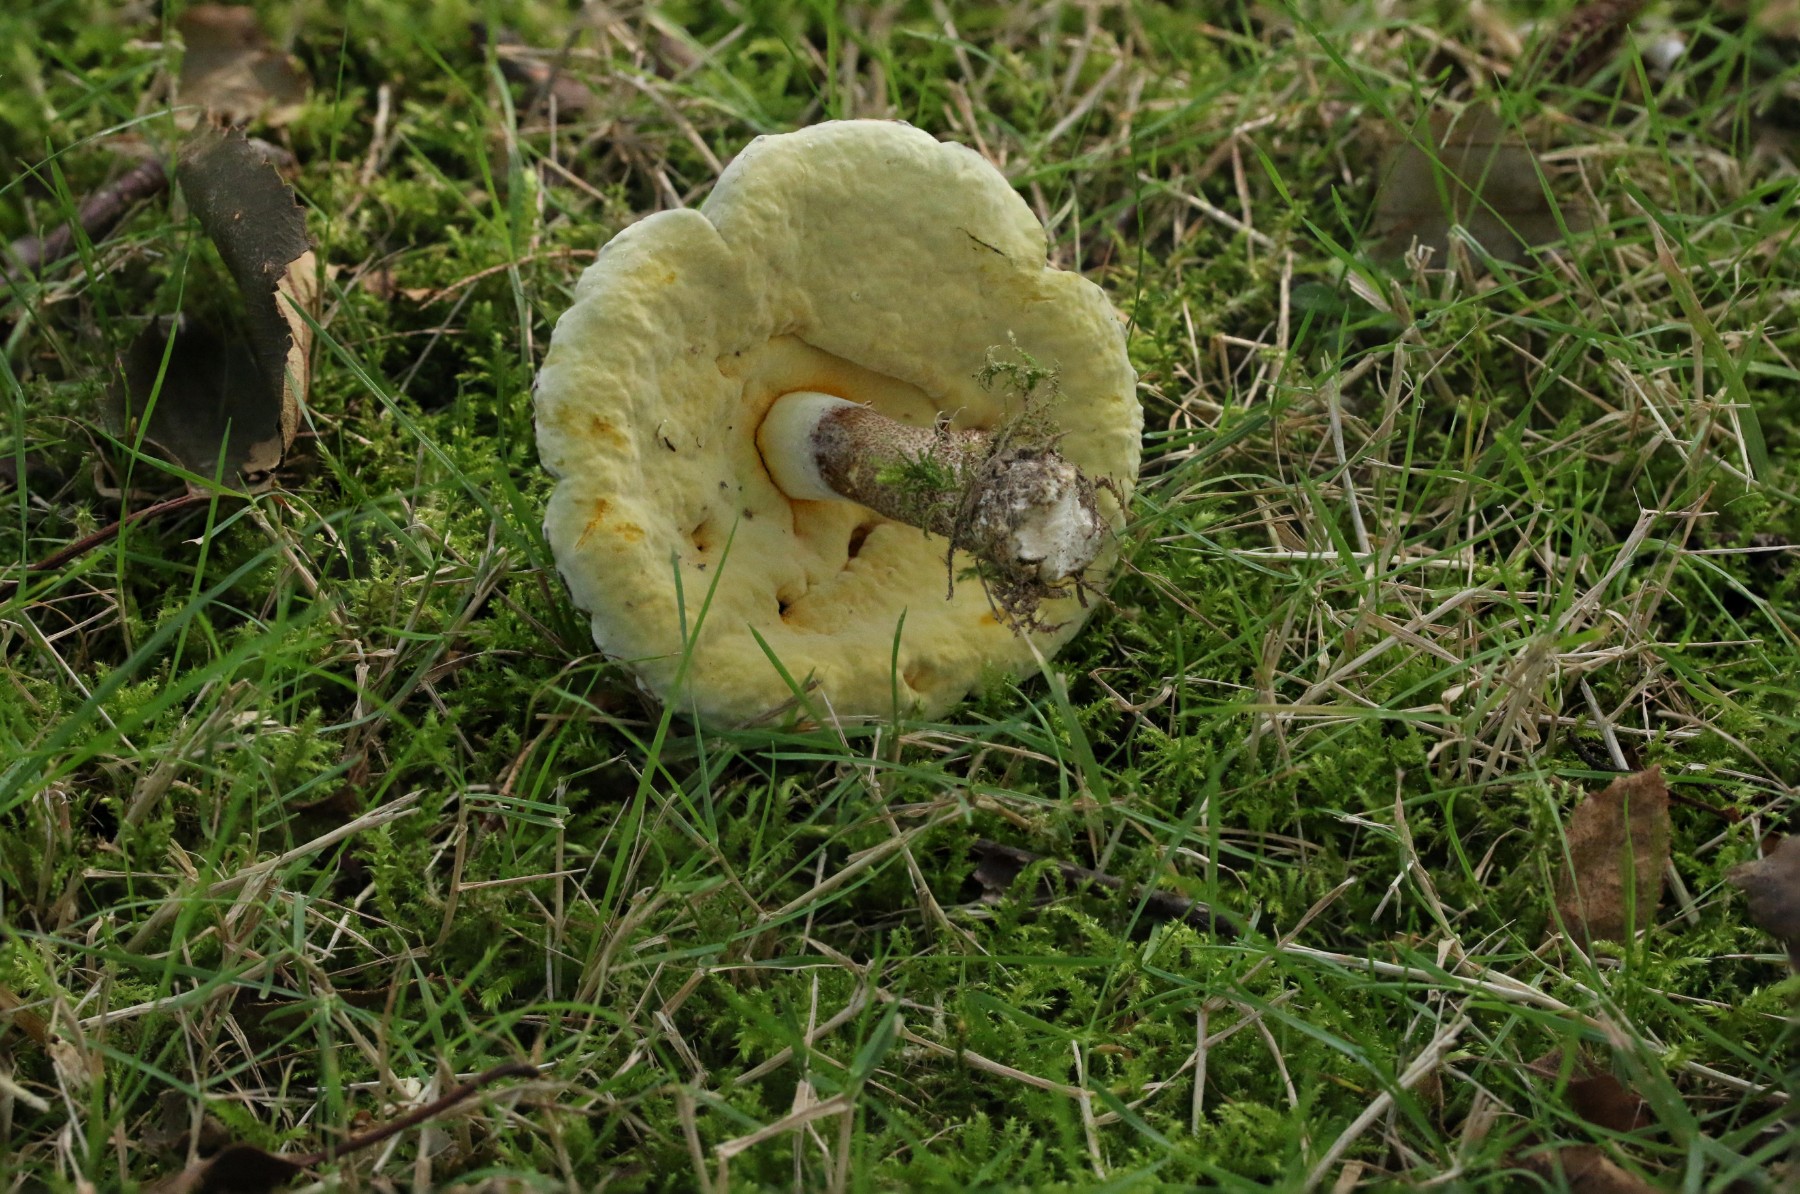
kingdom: Fungi
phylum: Ascomycota
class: Sordariomycetes
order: Hypocreales
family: Hypocreaceae
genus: Hypomyces
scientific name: Hypomyces chrysospermus
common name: gulskimmel-snylteskorpe
